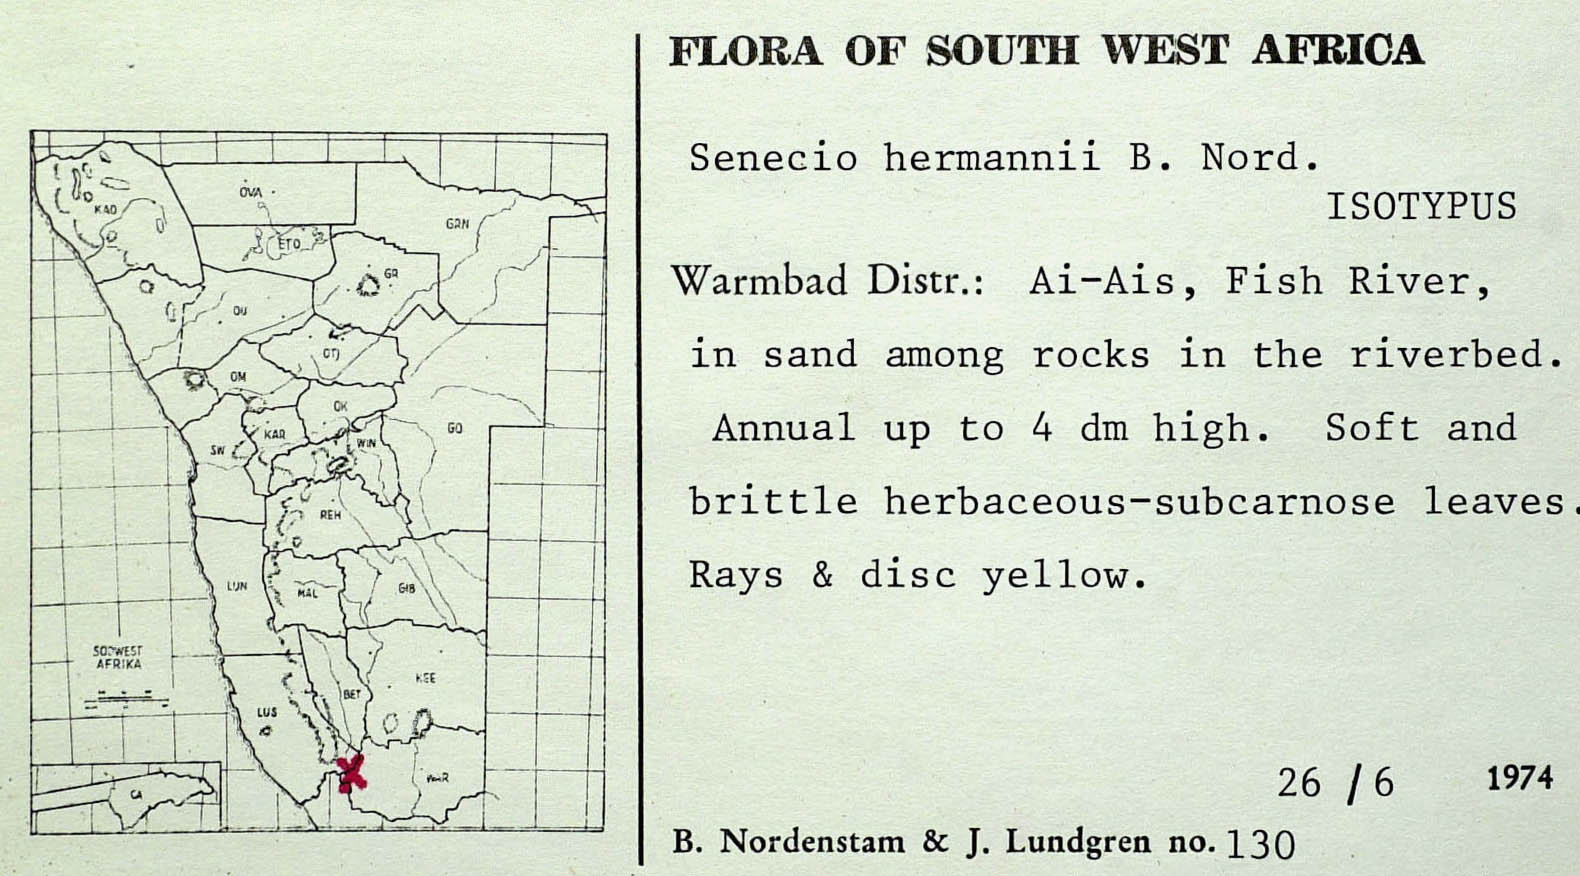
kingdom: Plantae
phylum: Tracheophyta
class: Magnoliopsida
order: Asterales
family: Asteraceae
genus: Senecio
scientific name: Senecio hermannii
